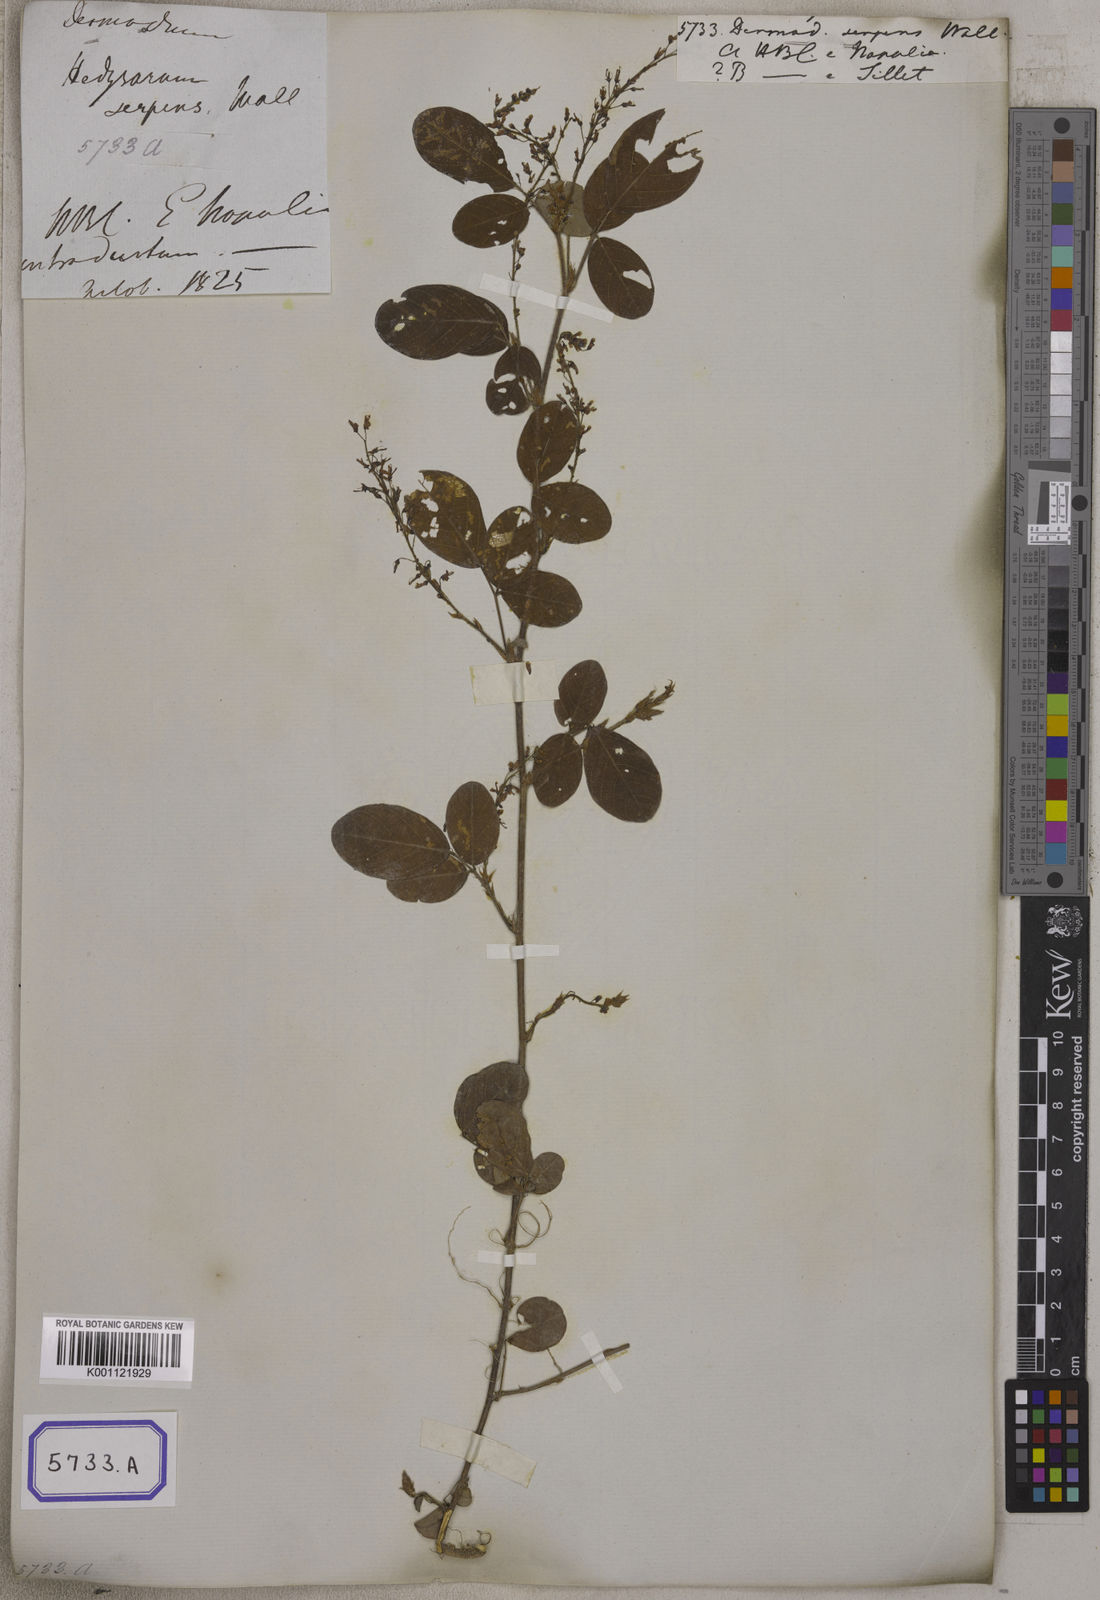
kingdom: Plantae
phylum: Tracheophyta
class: Magnoliopsida
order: Fabales
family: Fabaceae
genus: Grona
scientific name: Grona heterocarpos
